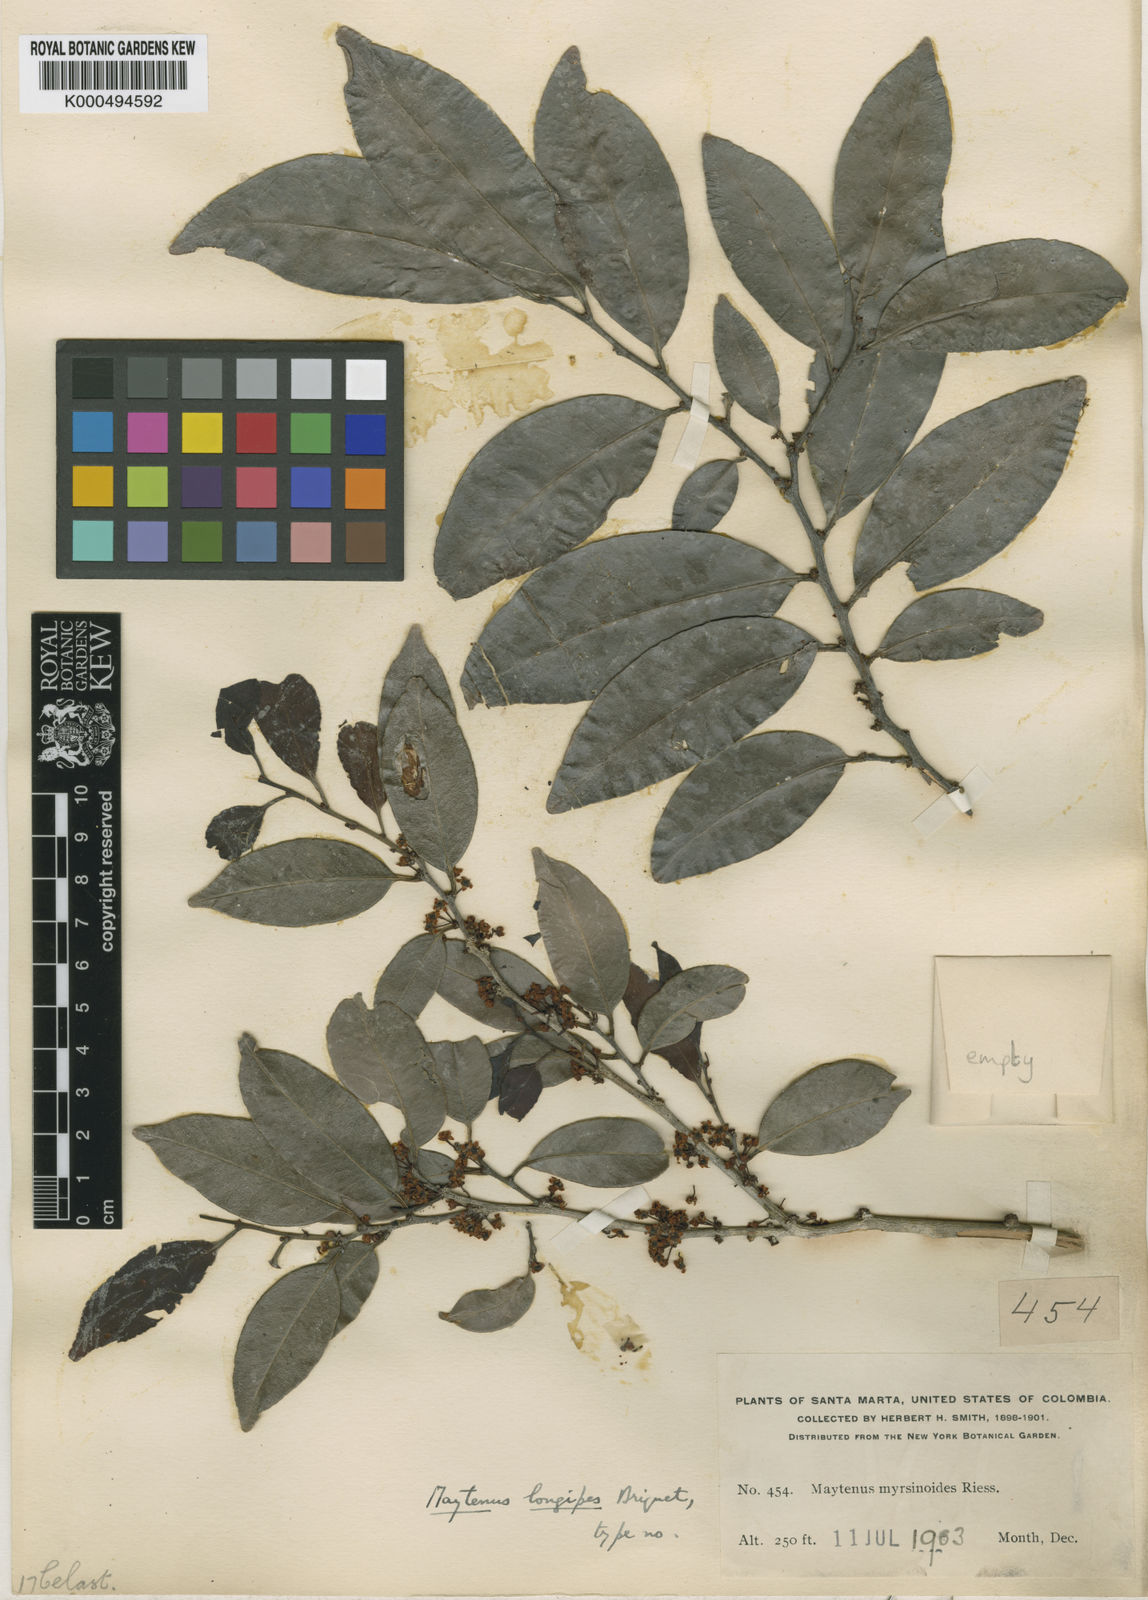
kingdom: Plantae
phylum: Tracheophyta
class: Magnoliopsida
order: Celastrales
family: Celastraceae
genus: Maytenus
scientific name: Maytenus longipes
